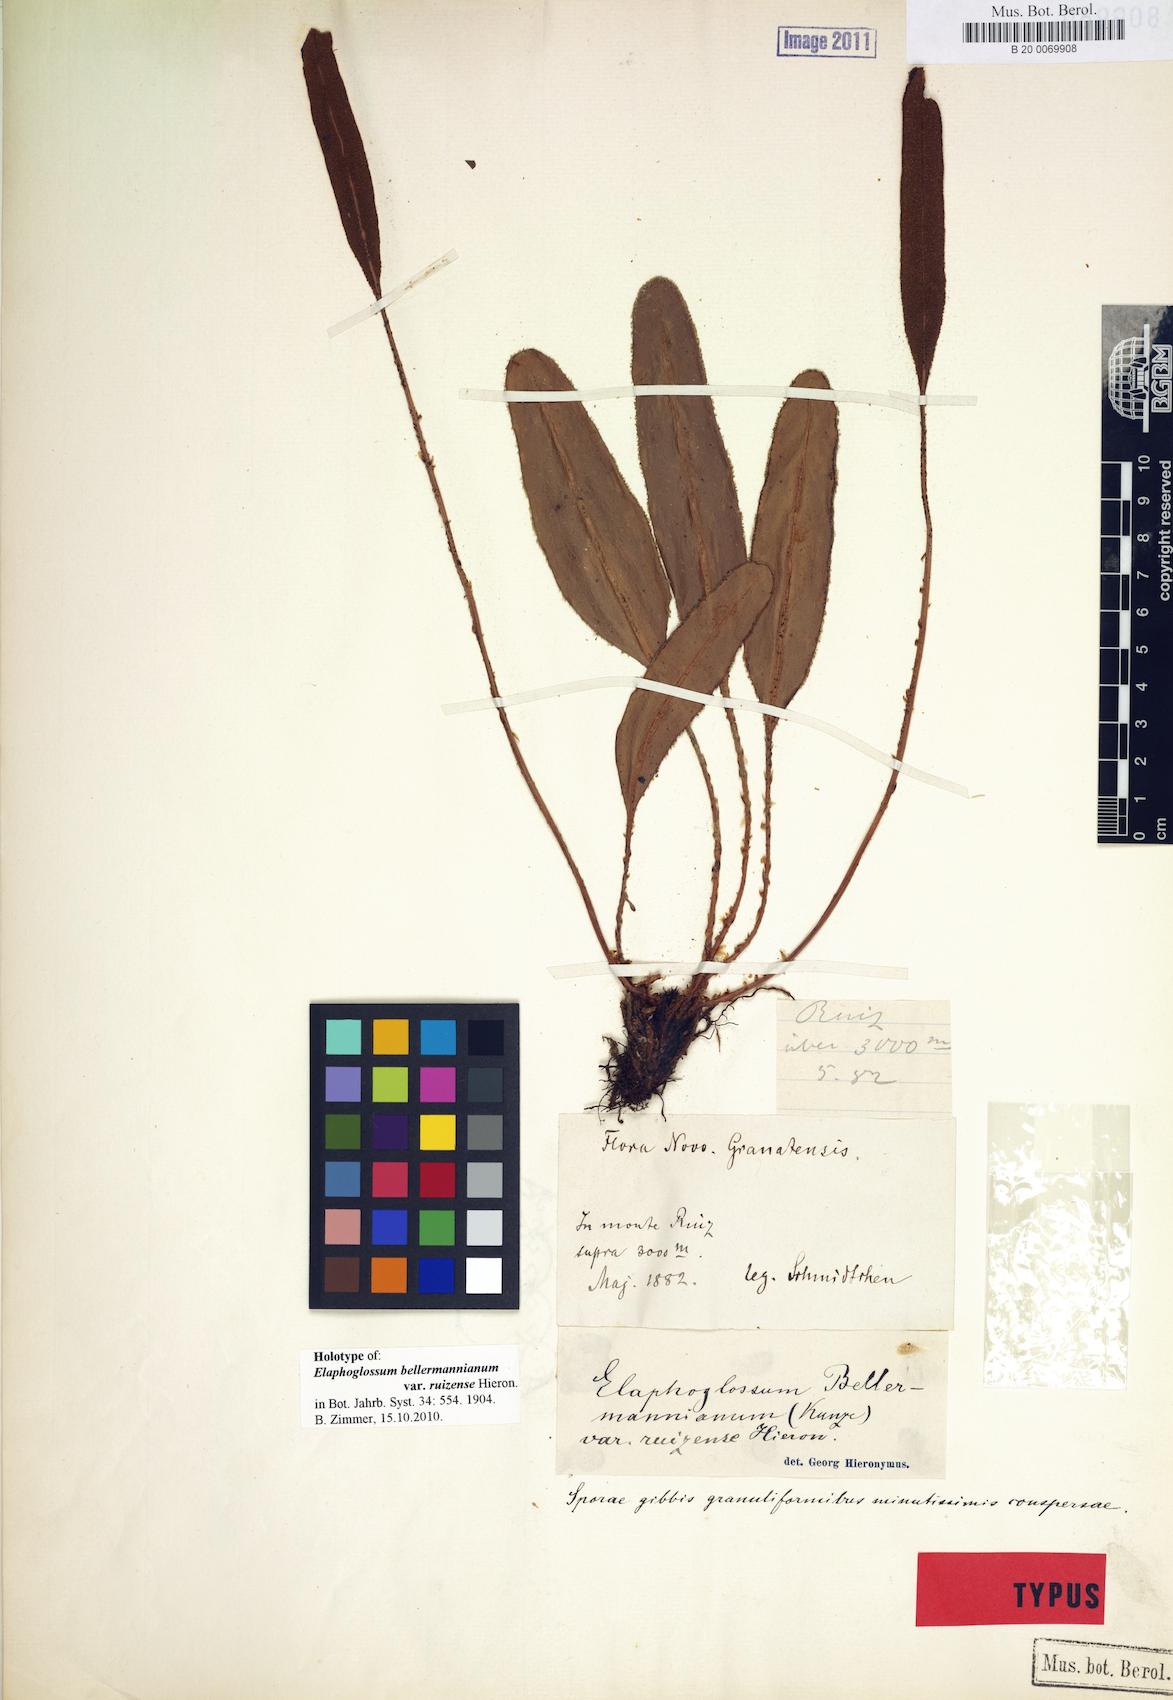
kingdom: Plantae
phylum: Tracheophyta
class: Polypodiopsida
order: Polypodiales
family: Dryopteridaceae
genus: Elaphoglossum
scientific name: Elaphoglossum bellermannianum
